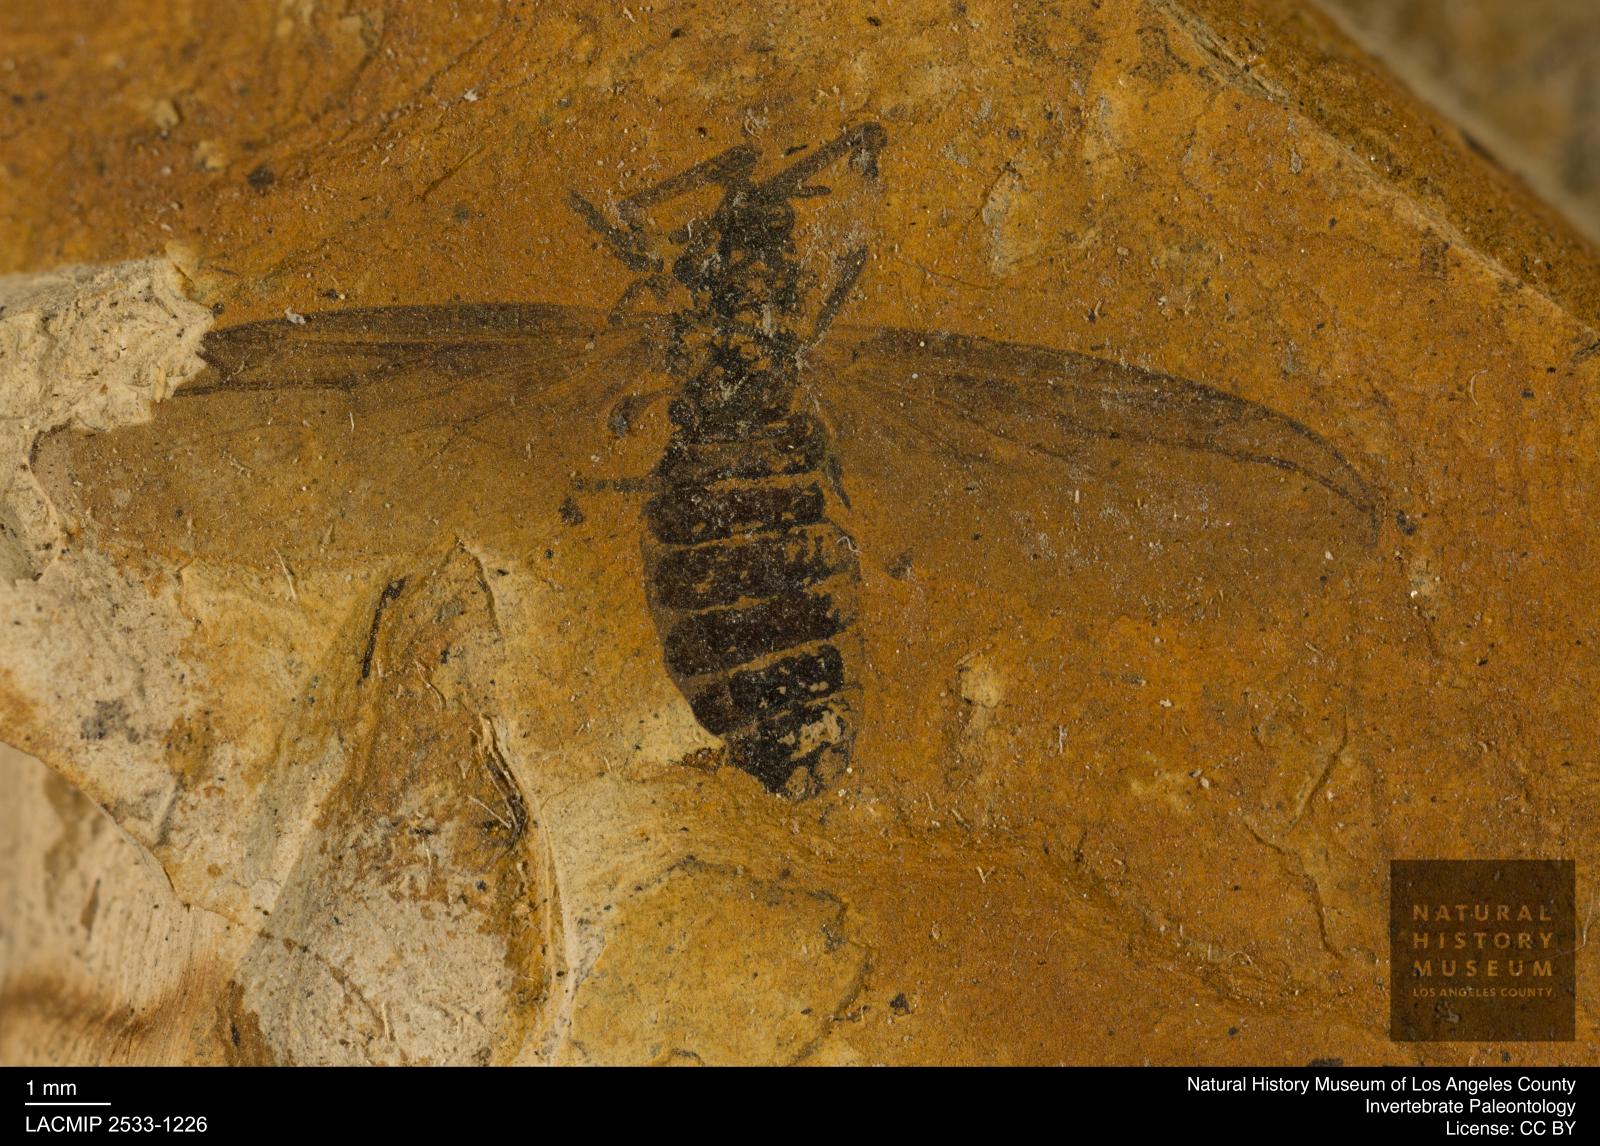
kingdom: Animalia
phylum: Arthropoda
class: Insecta
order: Diptera
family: Bibionidae
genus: Plecia
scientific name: Plecia grossa
